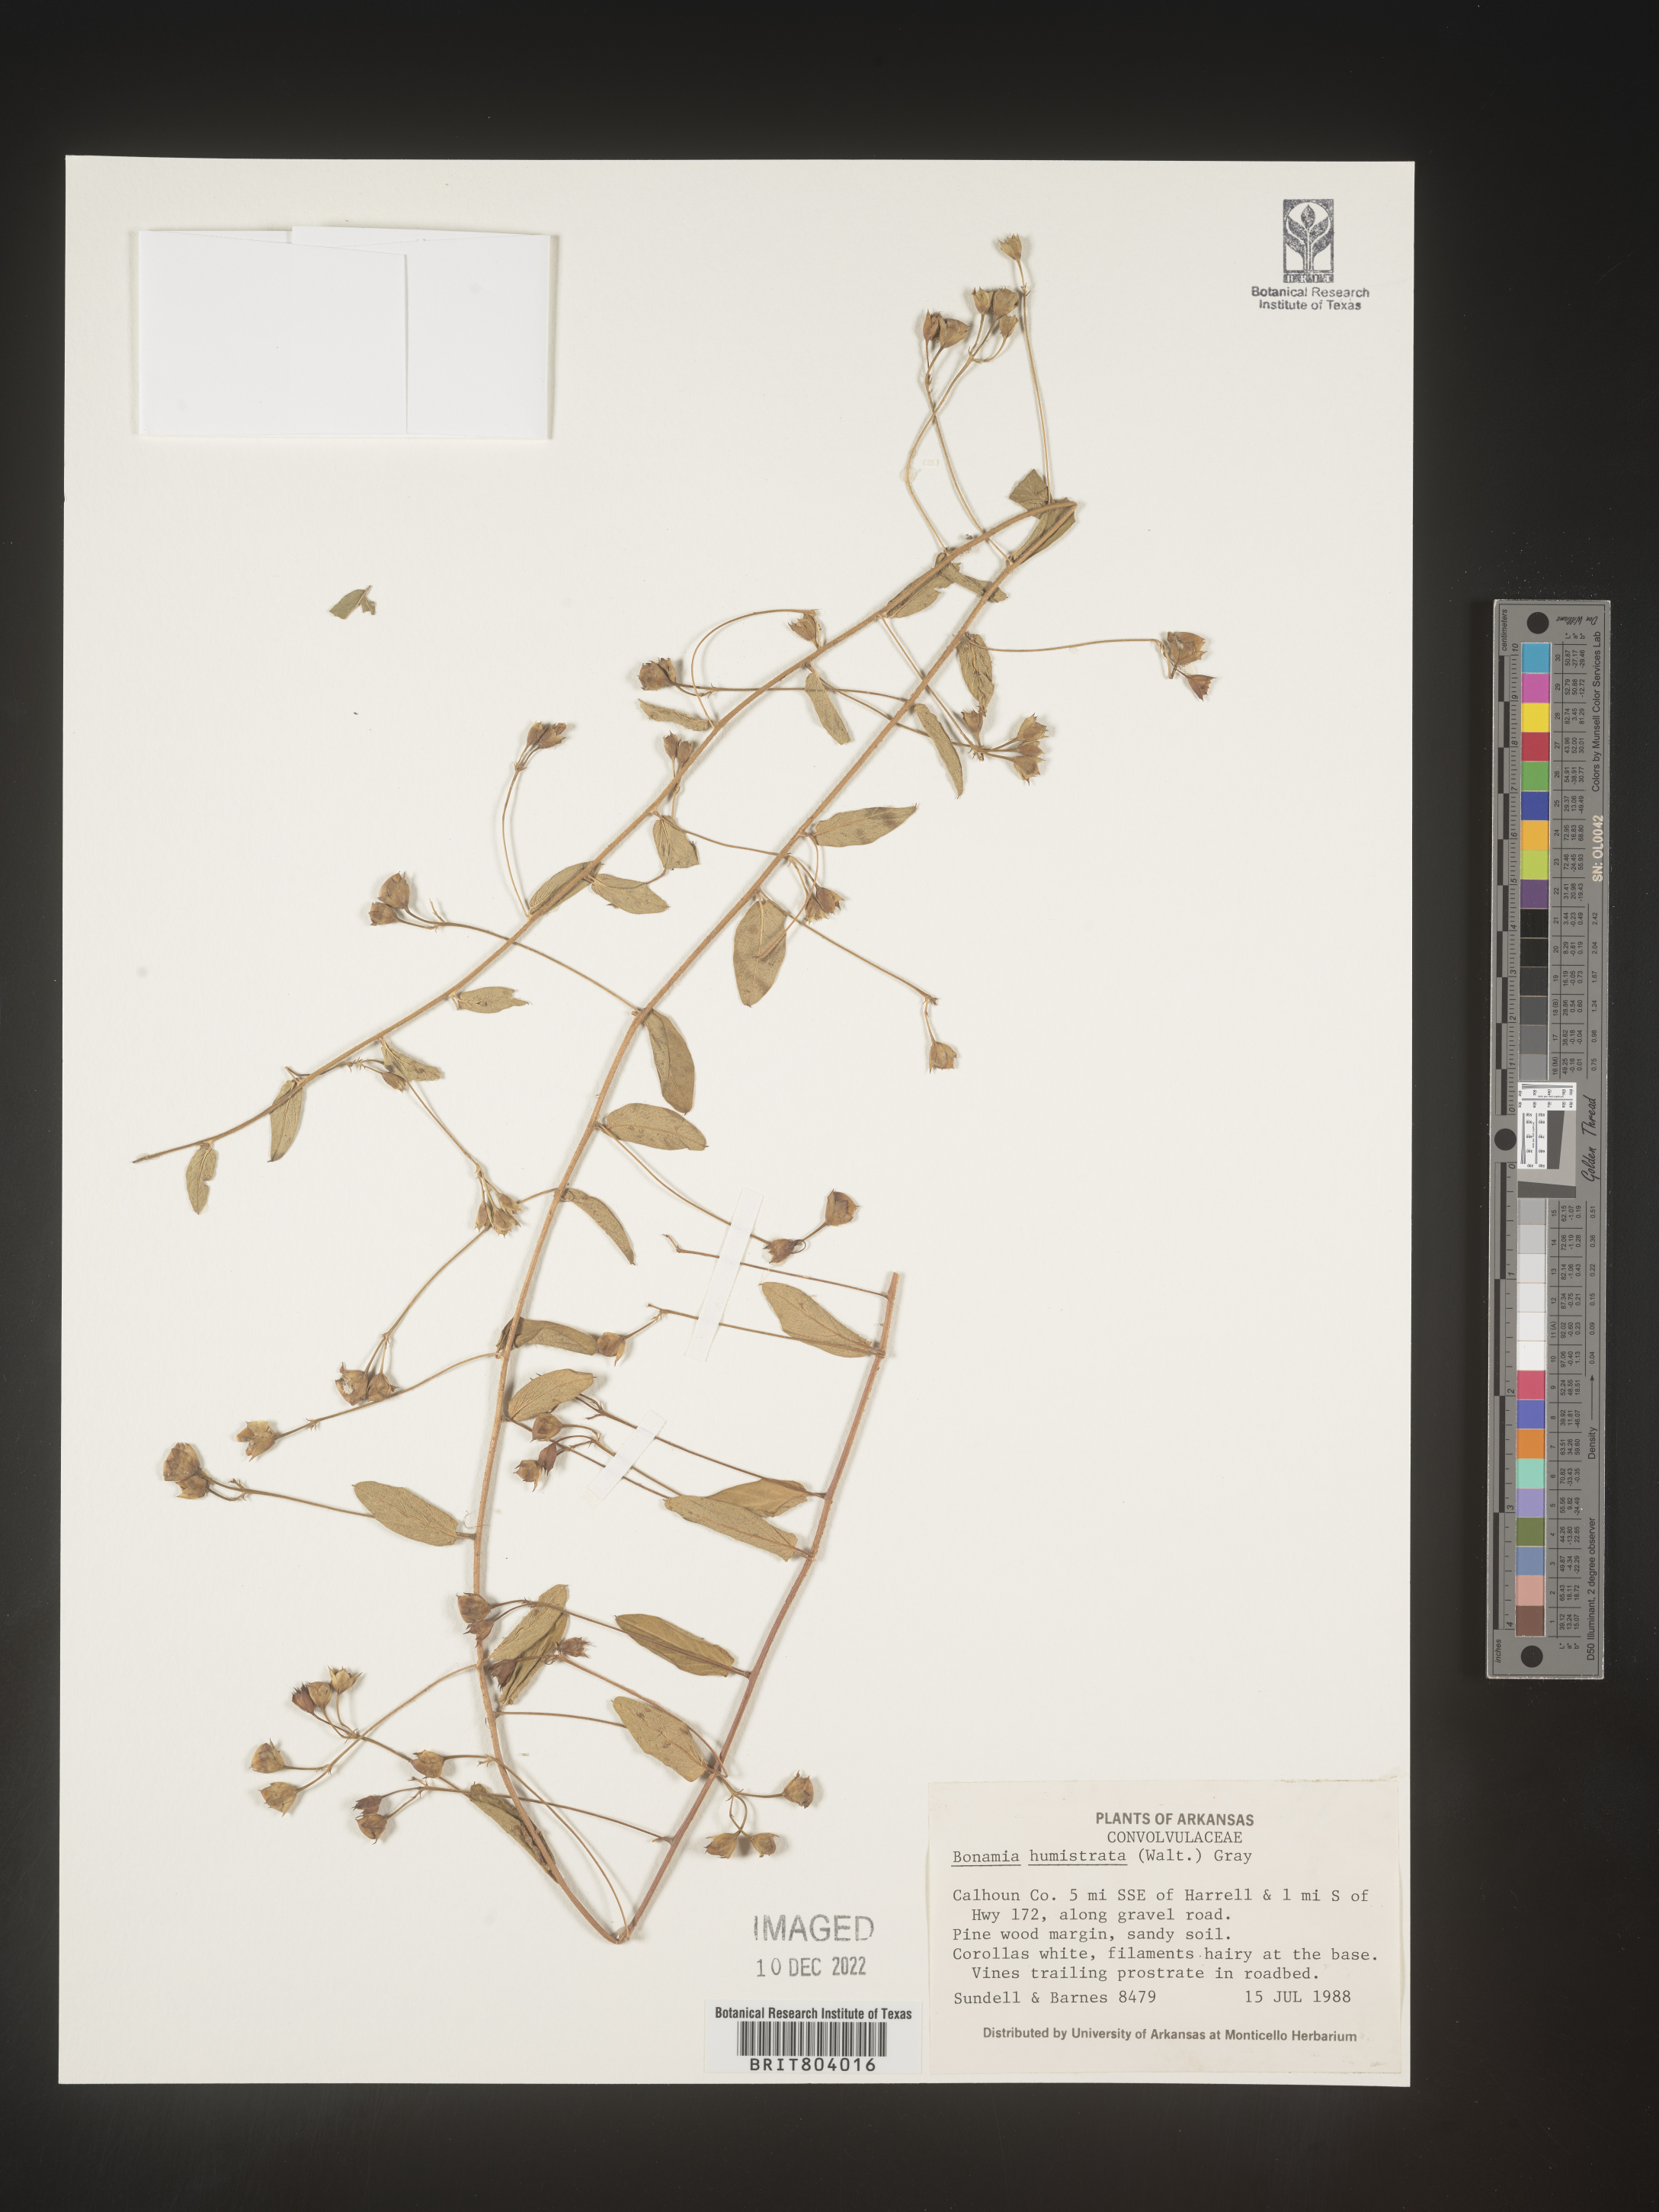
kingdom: Plantae
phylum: Tracheophyta
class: Magnoliopsida
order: Solanales
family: Convolvulaceae
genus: Bonamia
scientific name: Bonamia
